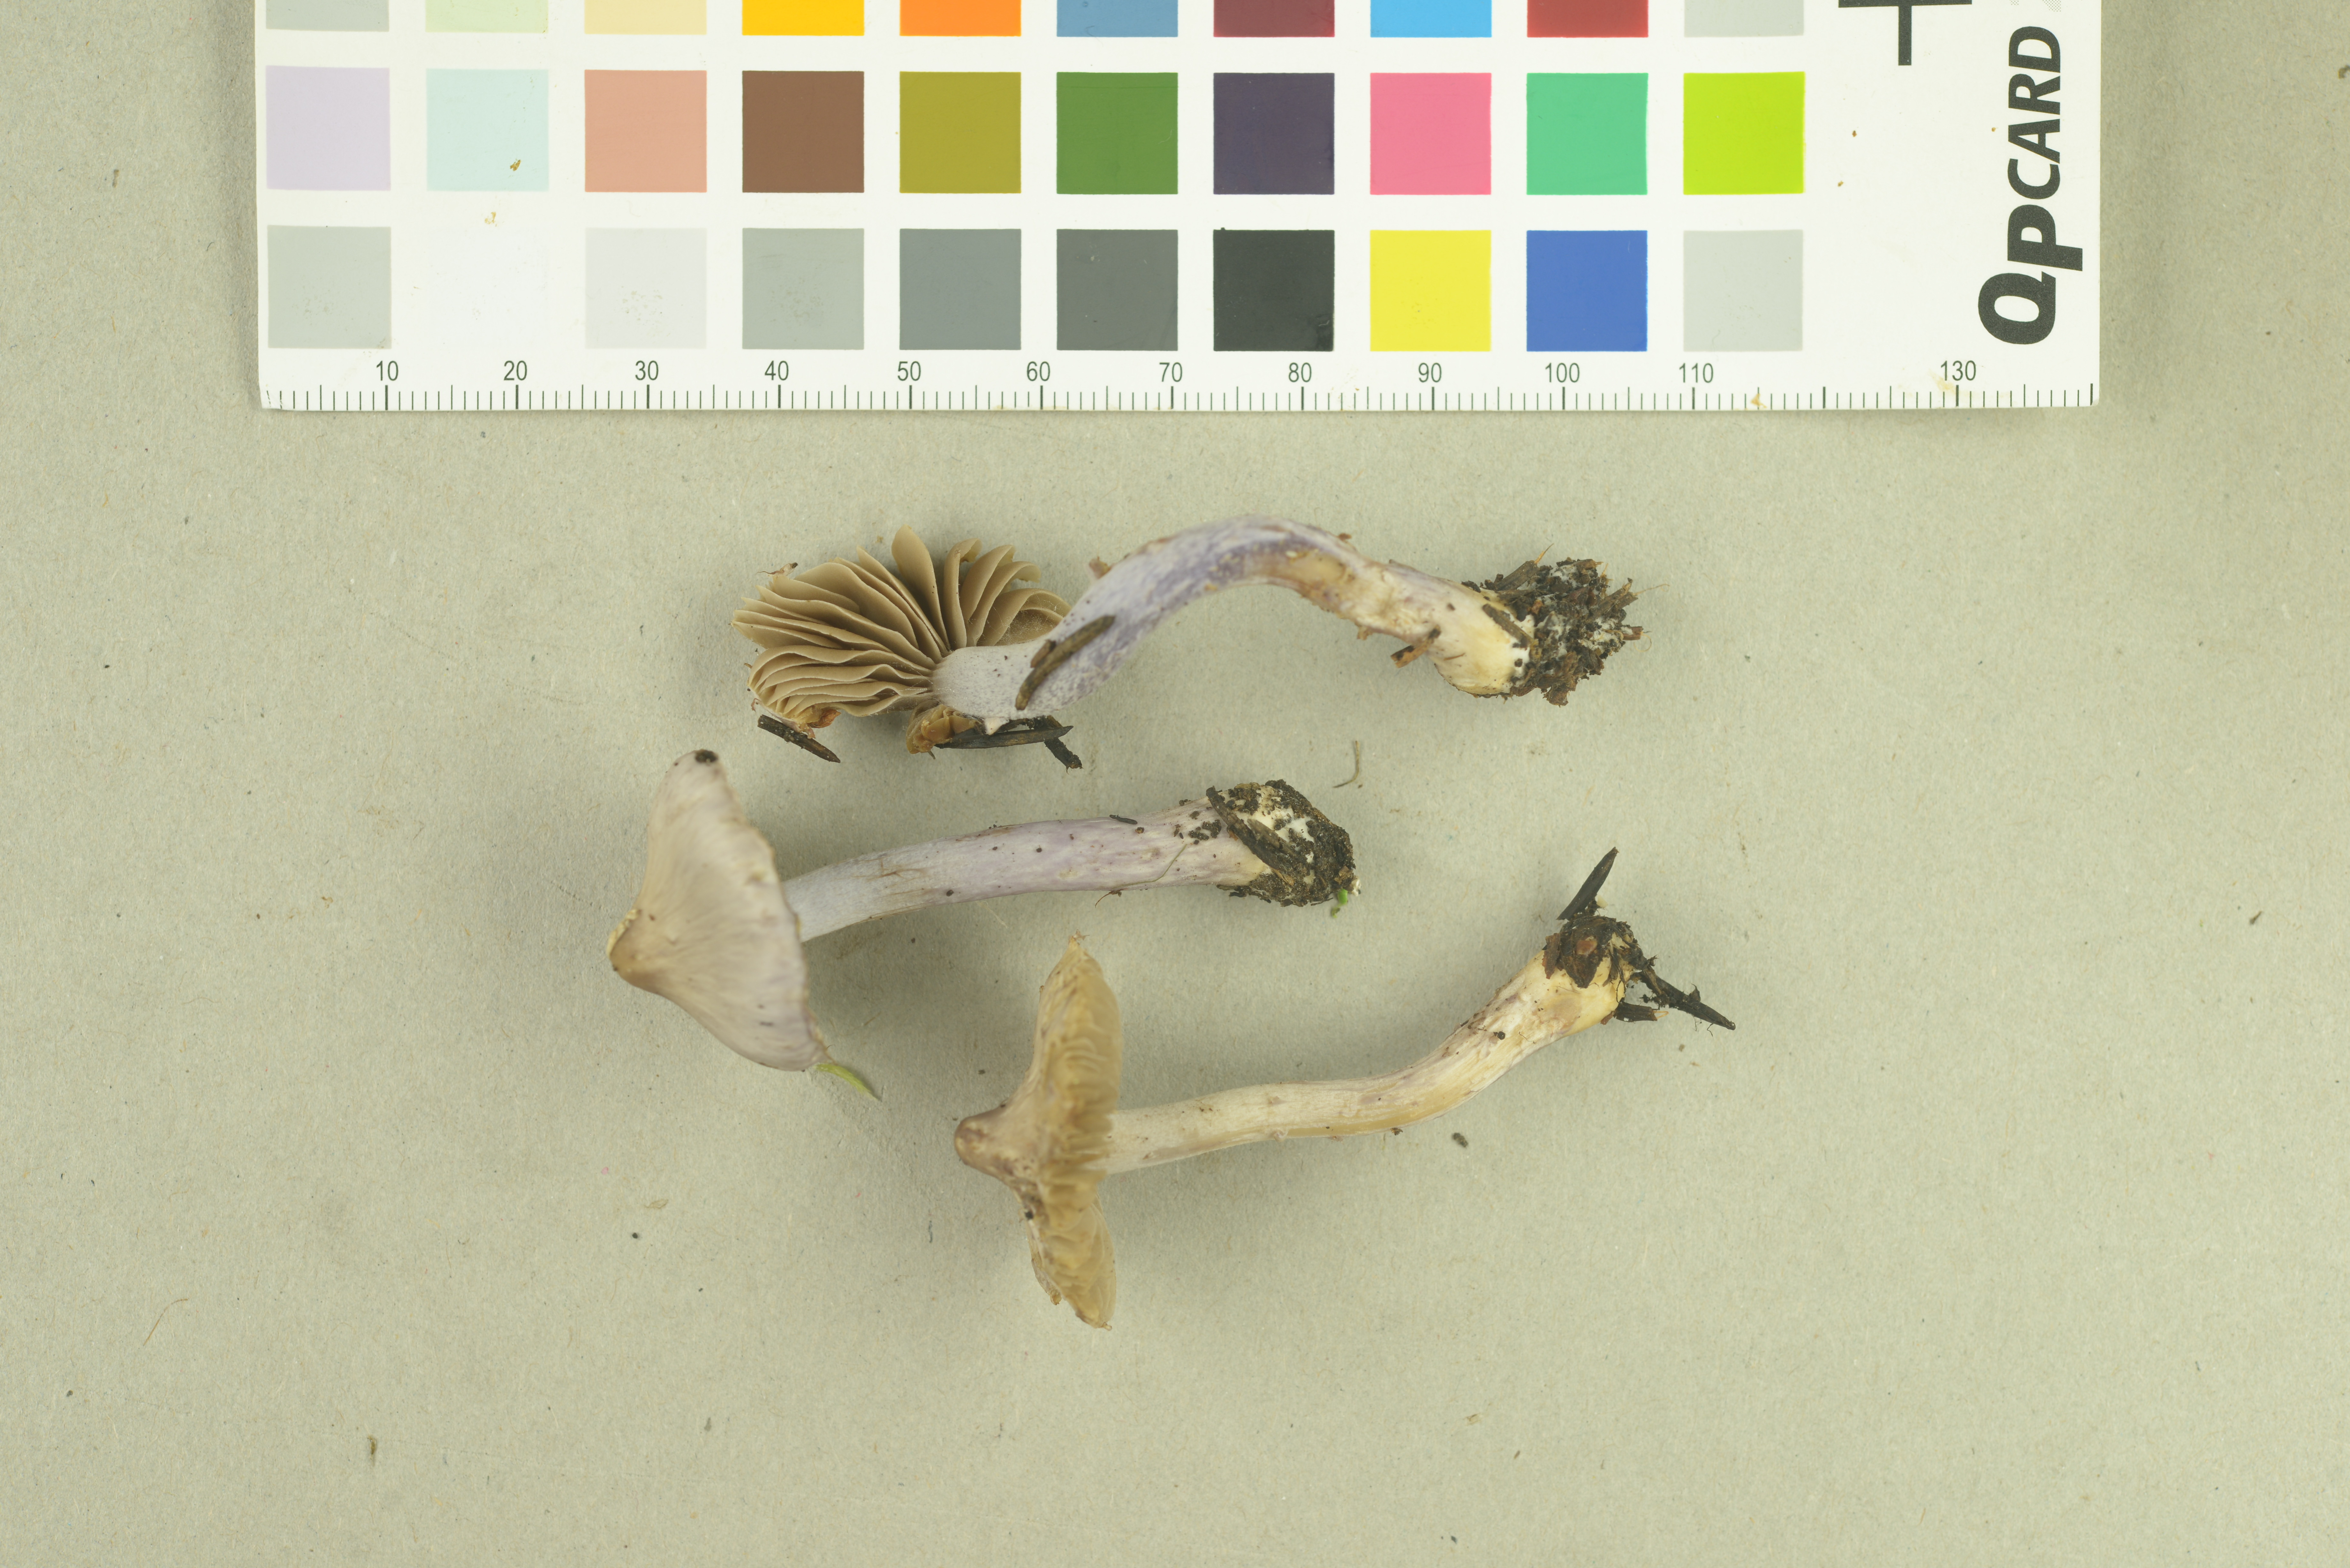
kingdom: Fungi
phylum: Basidiomycota
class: Agaricomycetes
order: Agaricales
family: Inocybaceae
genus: Inocybe
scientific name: Inocybe pallidicremea
